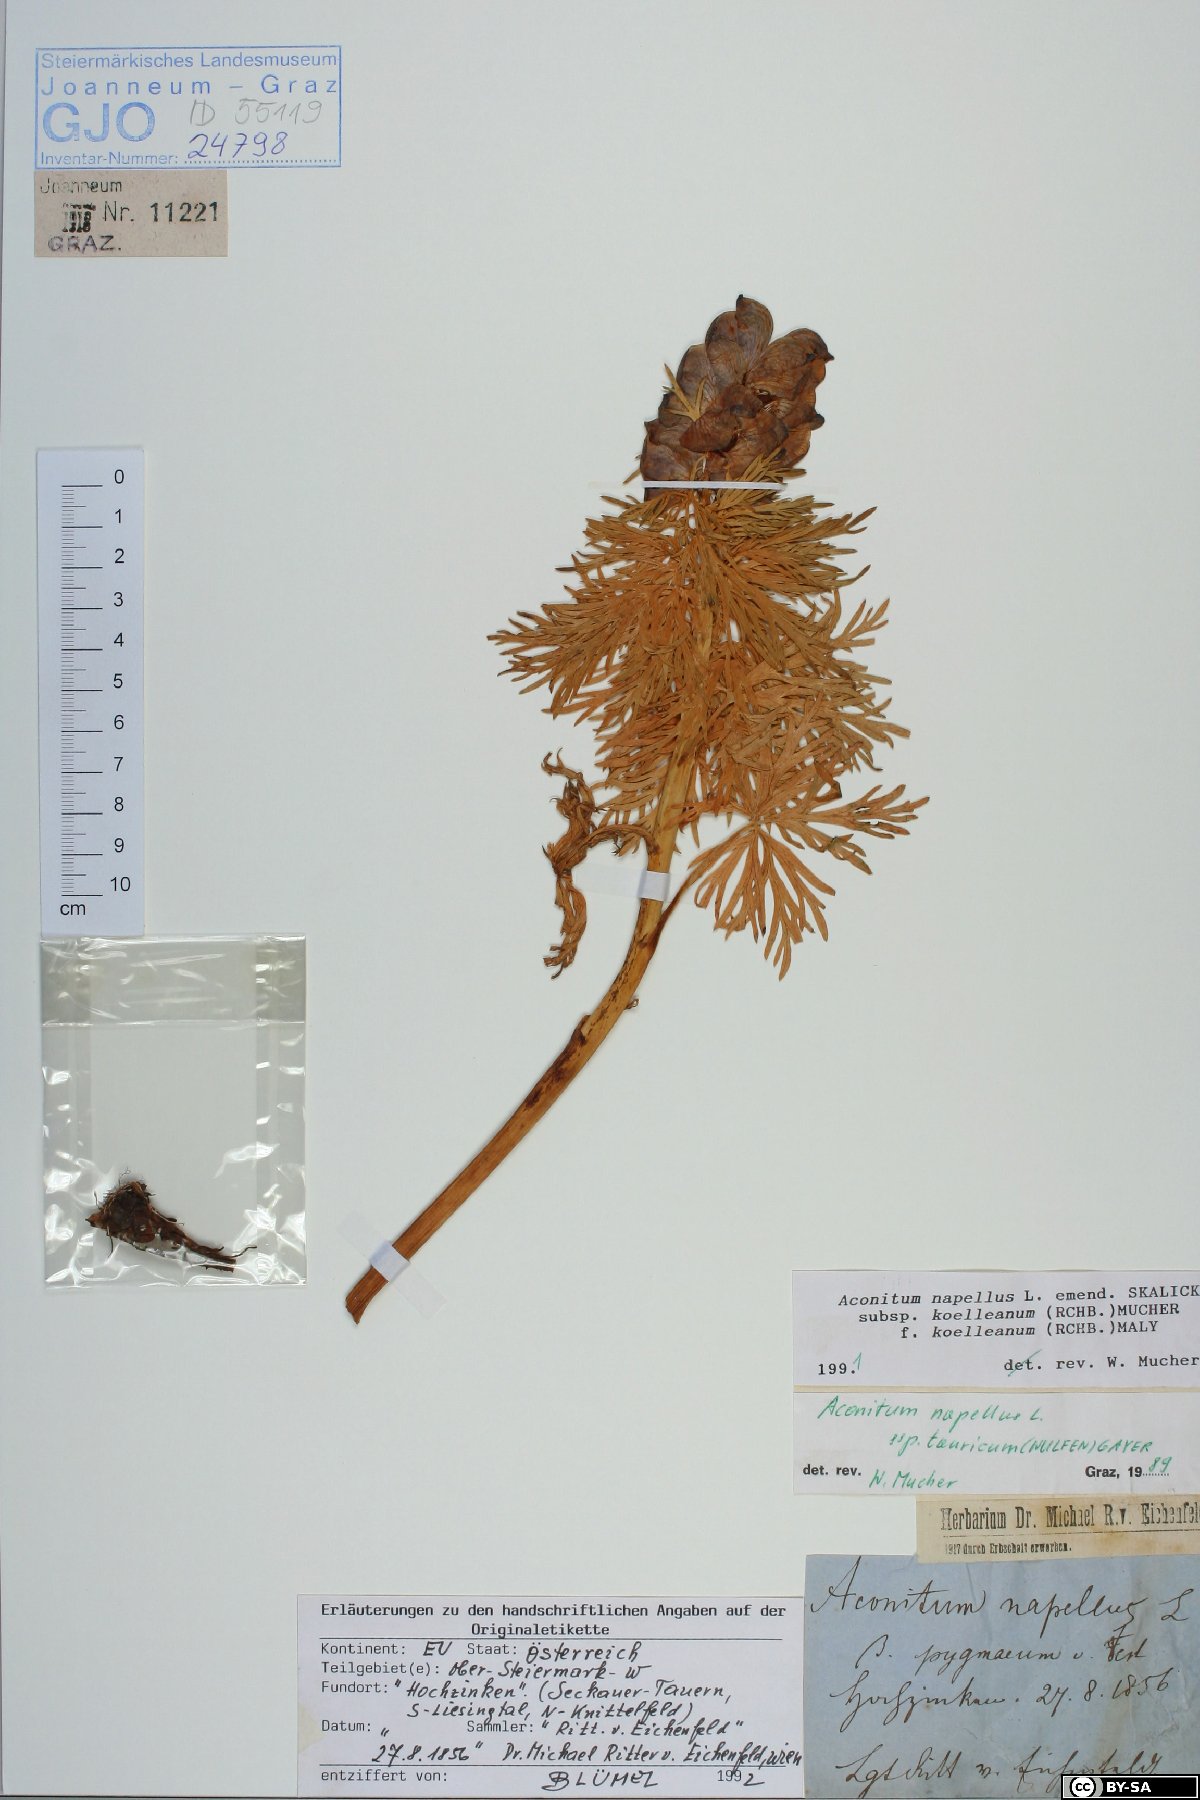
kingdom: Plantae
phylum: Tracheophyta
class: Magnoliopsida
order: Ranunculales
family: Ranunculaceae
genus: Aconitum
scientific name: Aconitum tauricum
